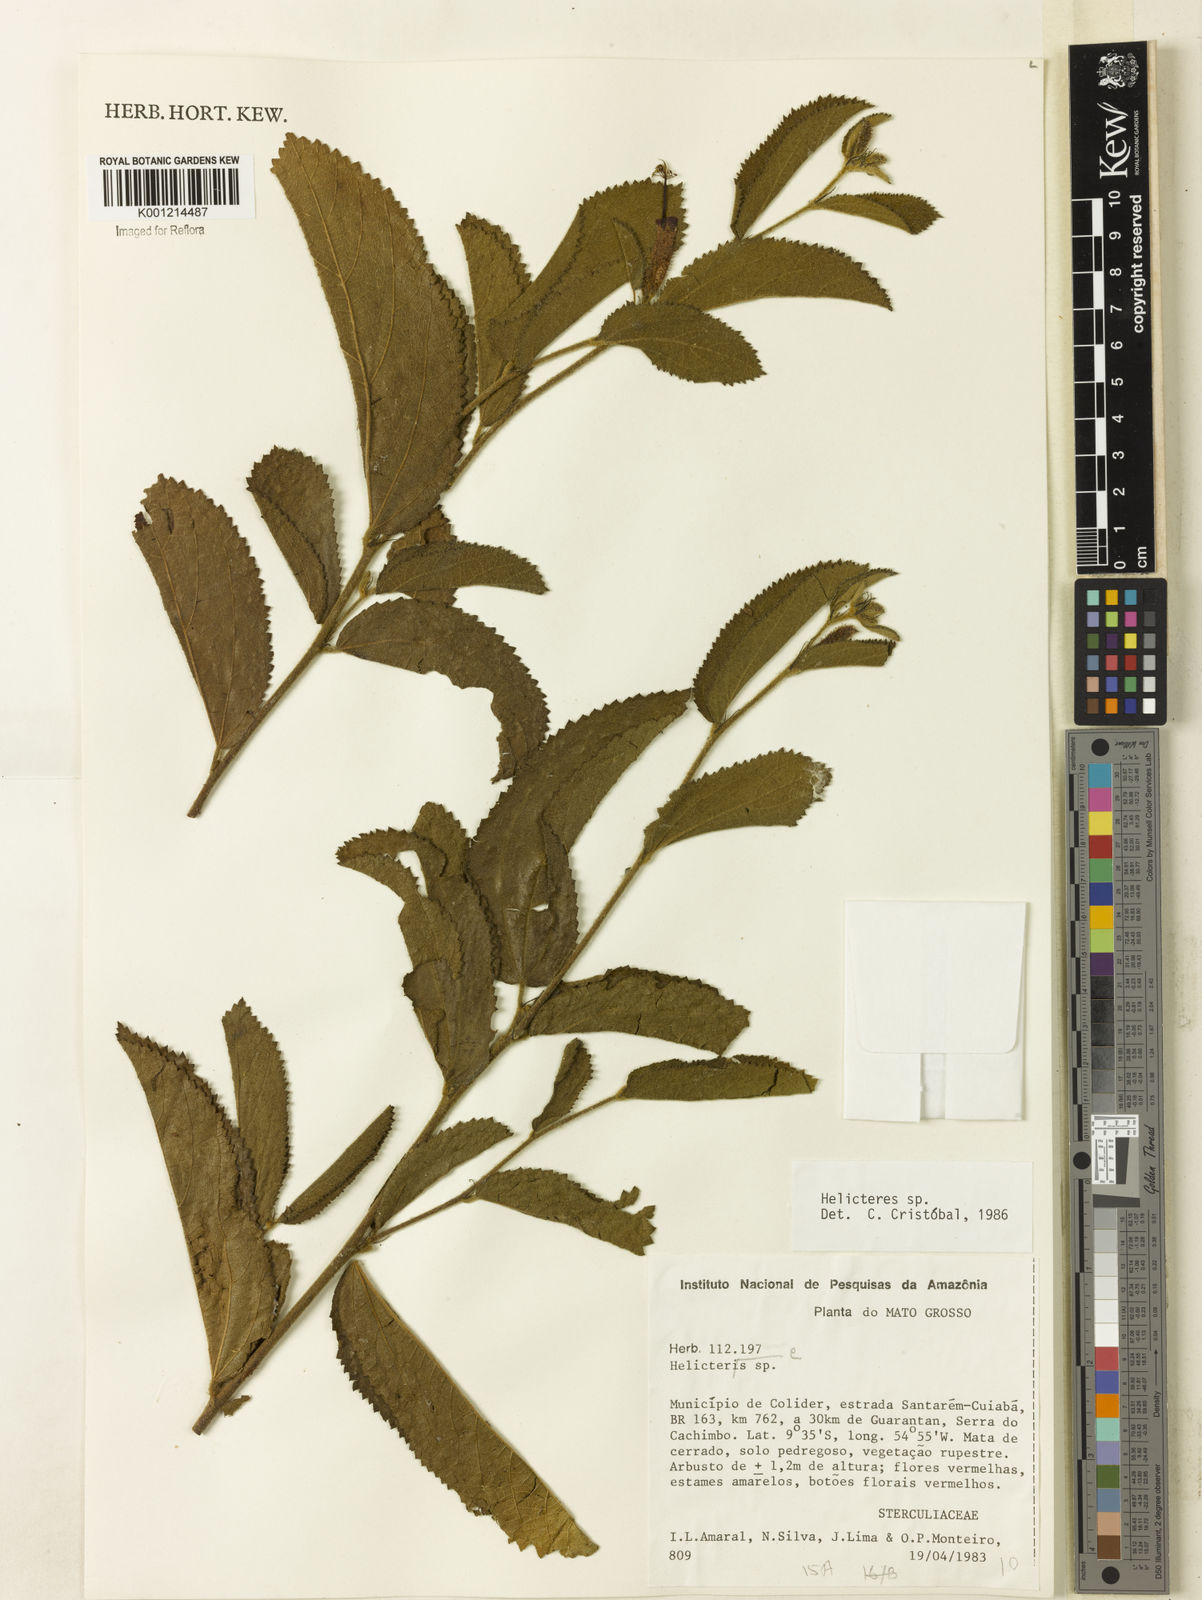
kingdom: Plantae
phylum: Tracheophyta
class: Magnoliopsida
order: Malvales
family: Malvaceae
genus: Helicteres
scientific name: Helicteres
